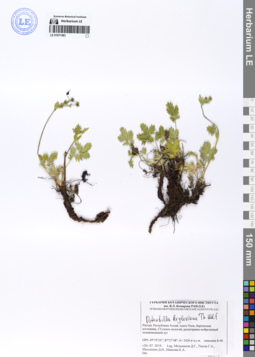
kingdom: Plantae
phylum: Tracheophyta
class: Magnoliopsida
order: Rosales
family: Rosaceae
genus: Potentilla
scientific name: Potentilla kryloviana
